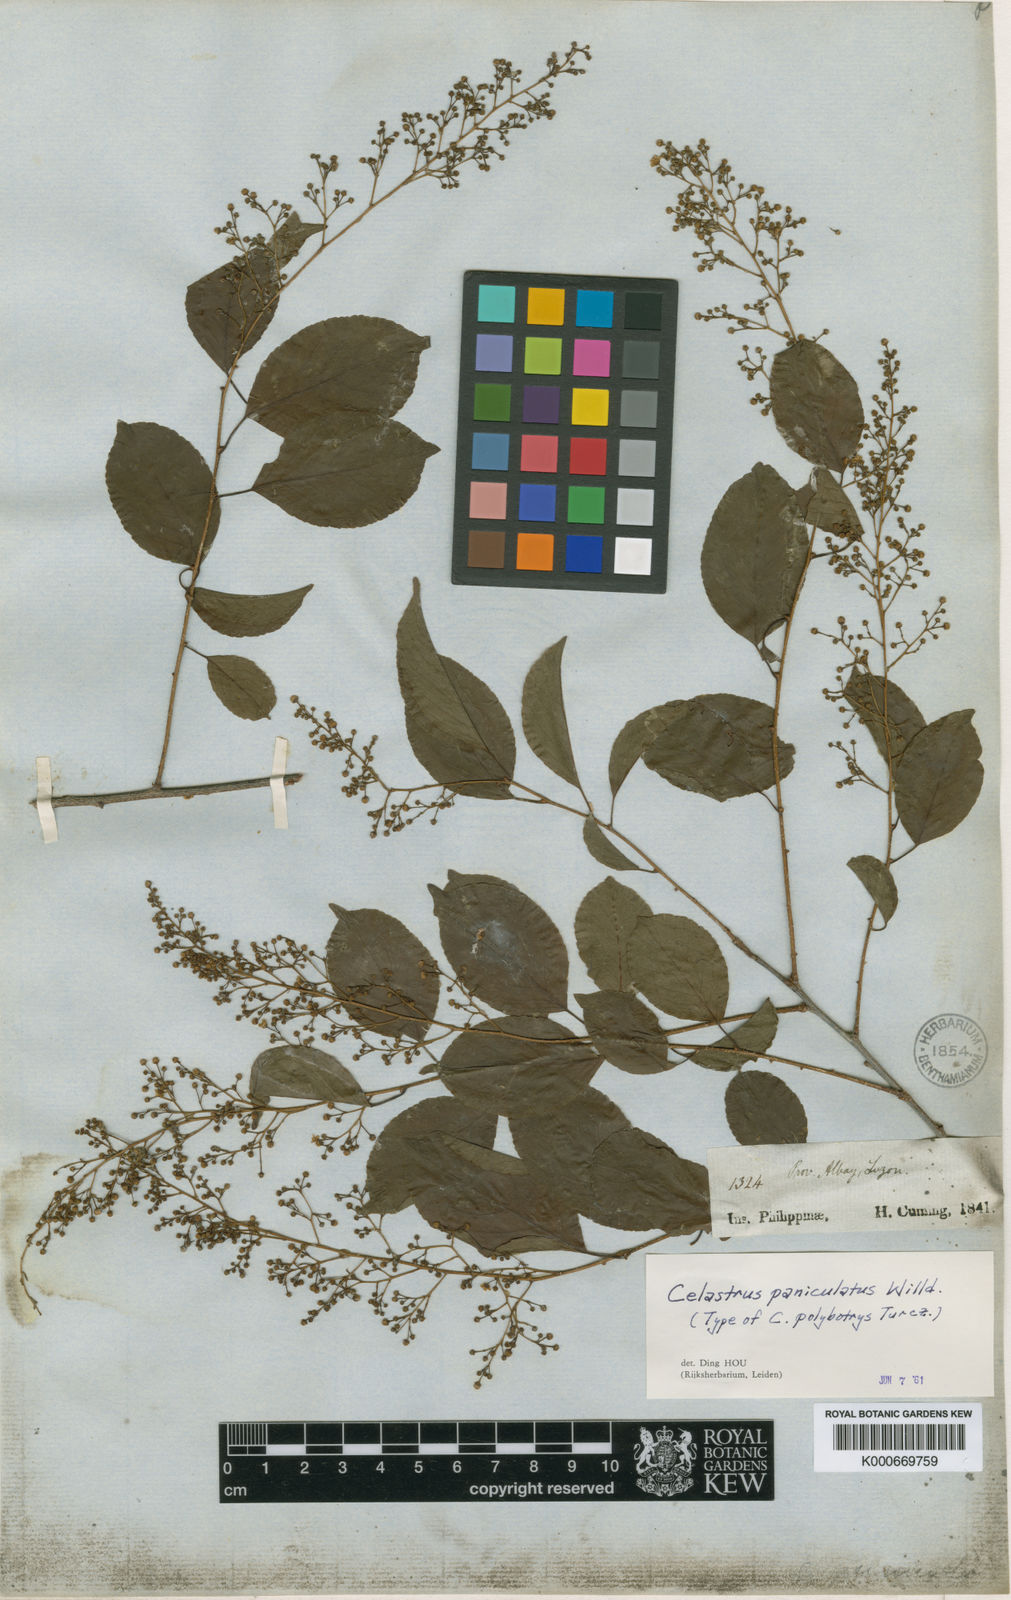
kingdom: Plantae
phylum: Tracheophyta
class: Magnoliopsida
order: Celastrales
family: Celastraceae
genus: Celastrus
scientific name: Celastrus paniculatus
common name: Oriental bittersweet; staff vine
